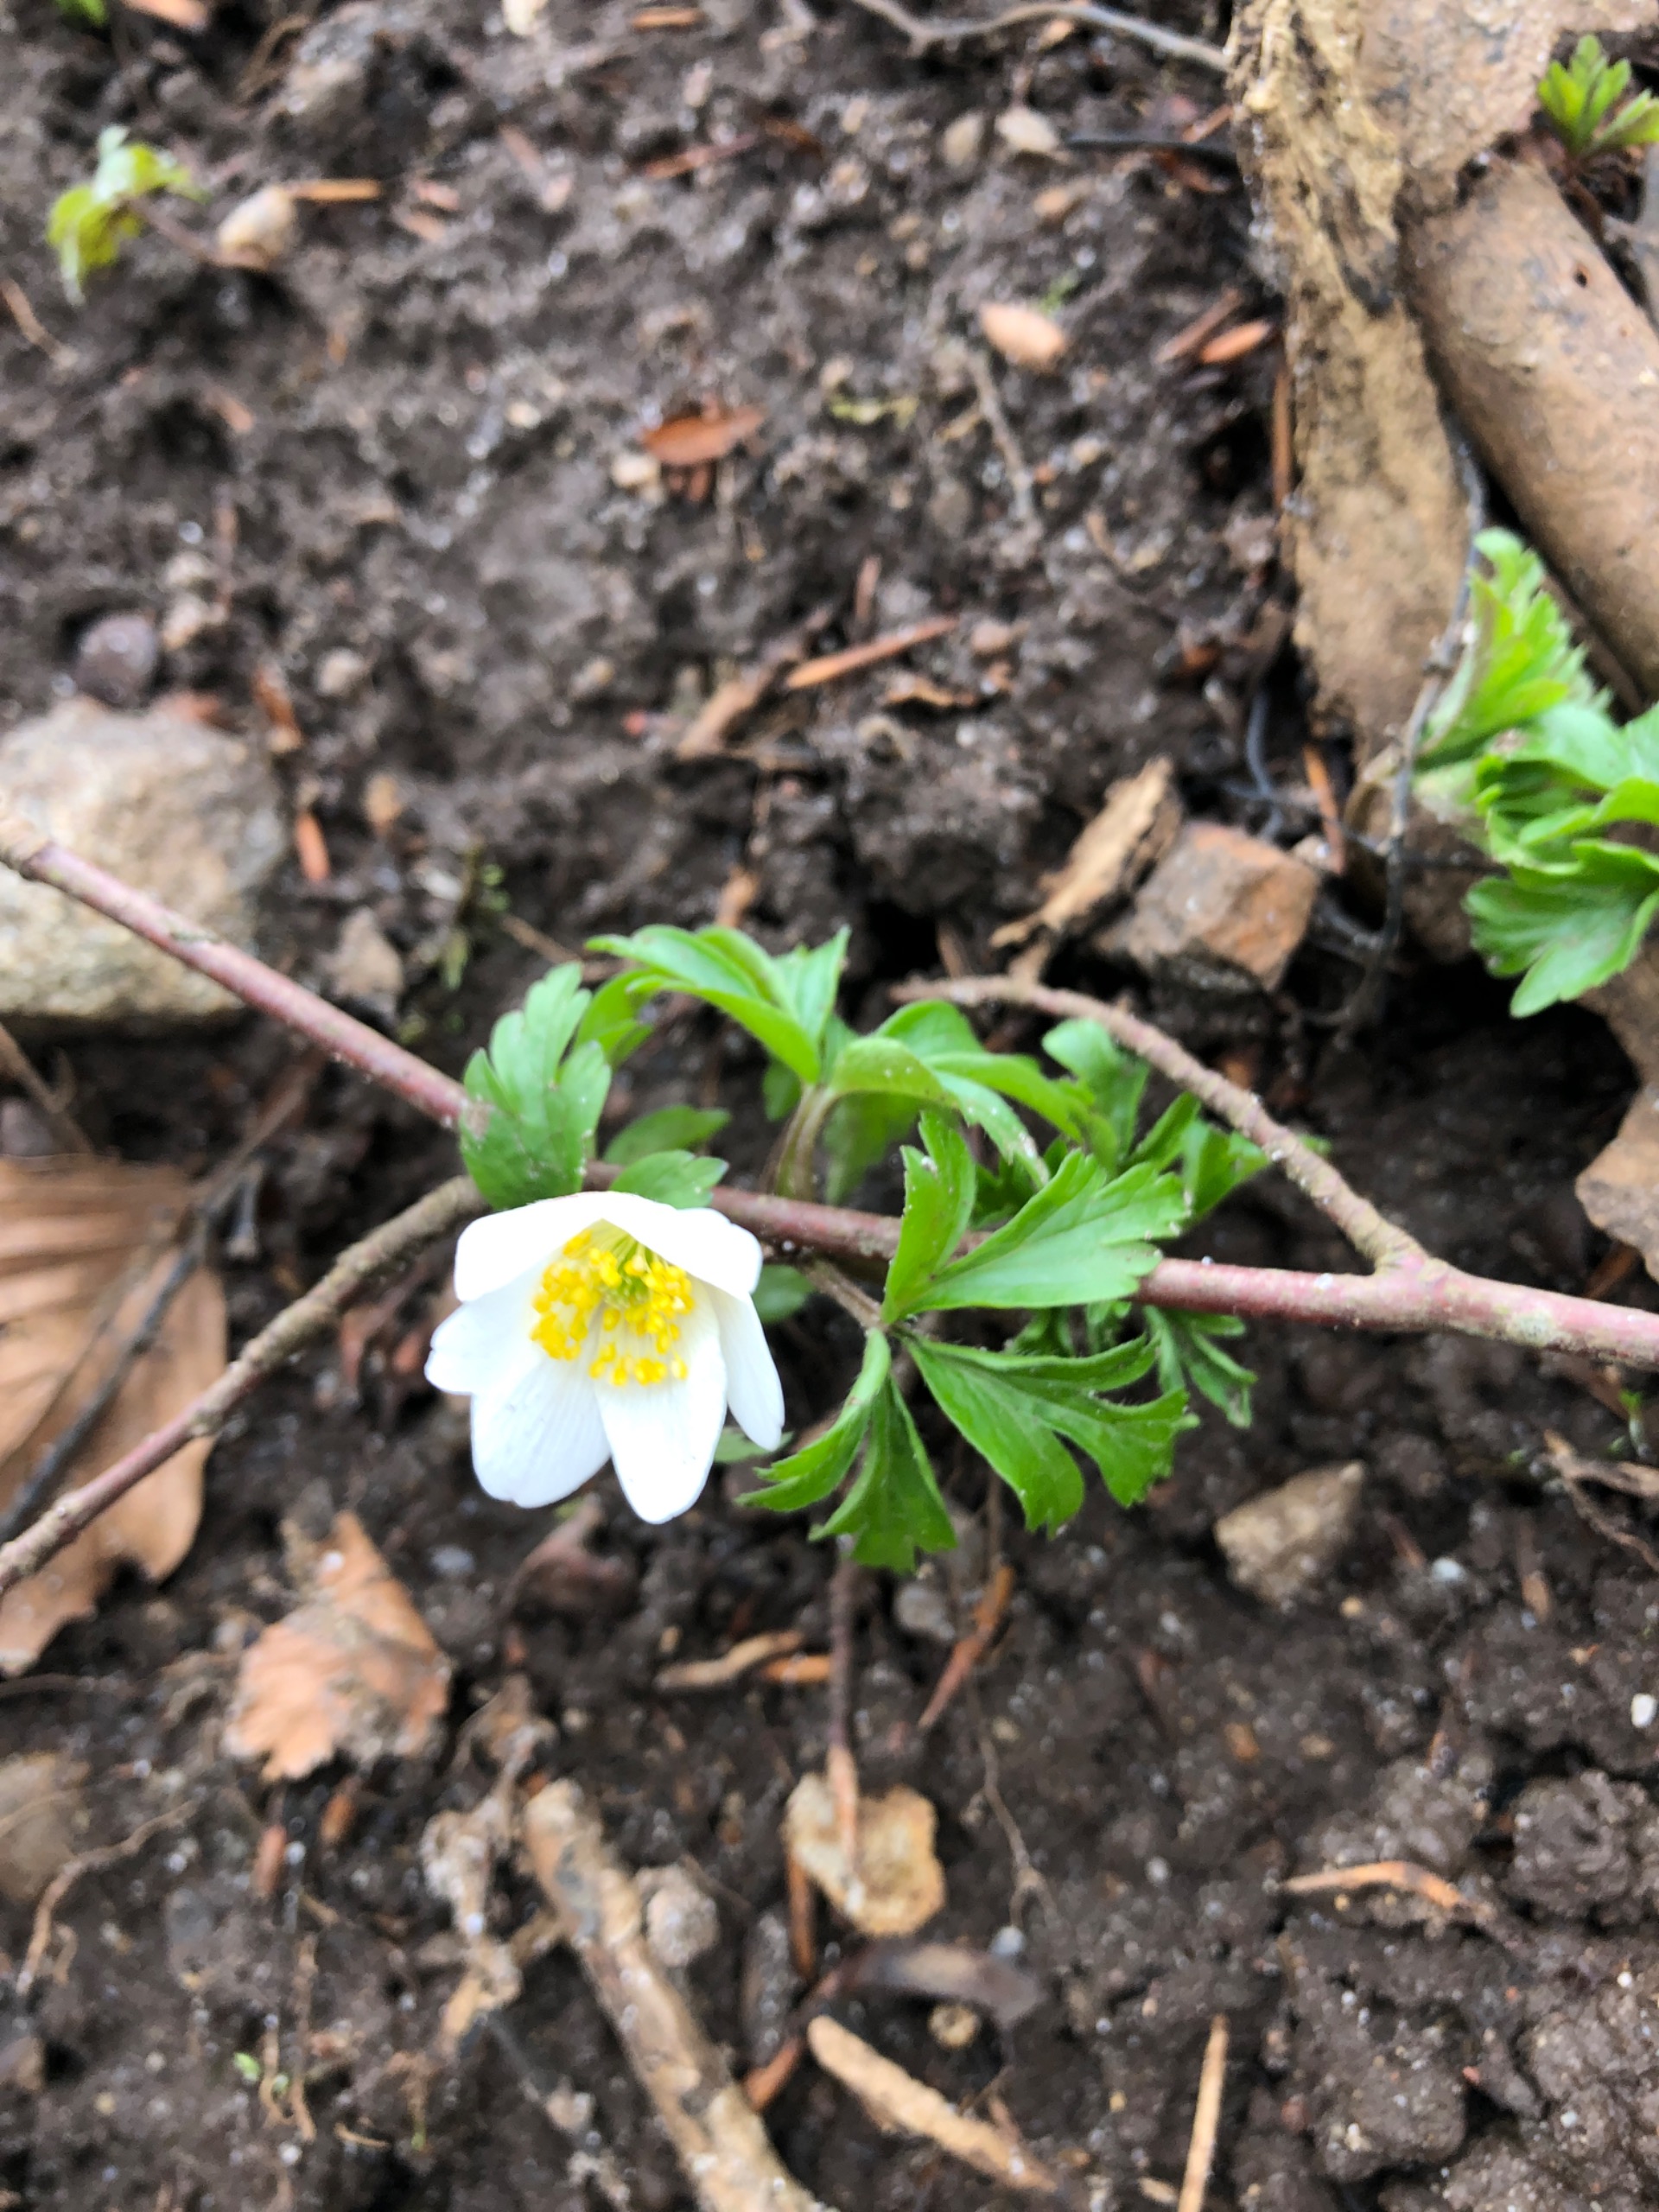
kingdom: Plantae
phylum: Tracheophyta
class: Magnoliopsida
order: Ranunculales
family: Ranunculaceae
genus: Anemone
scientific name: Anemone nemorosa
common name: Hvid anemone
